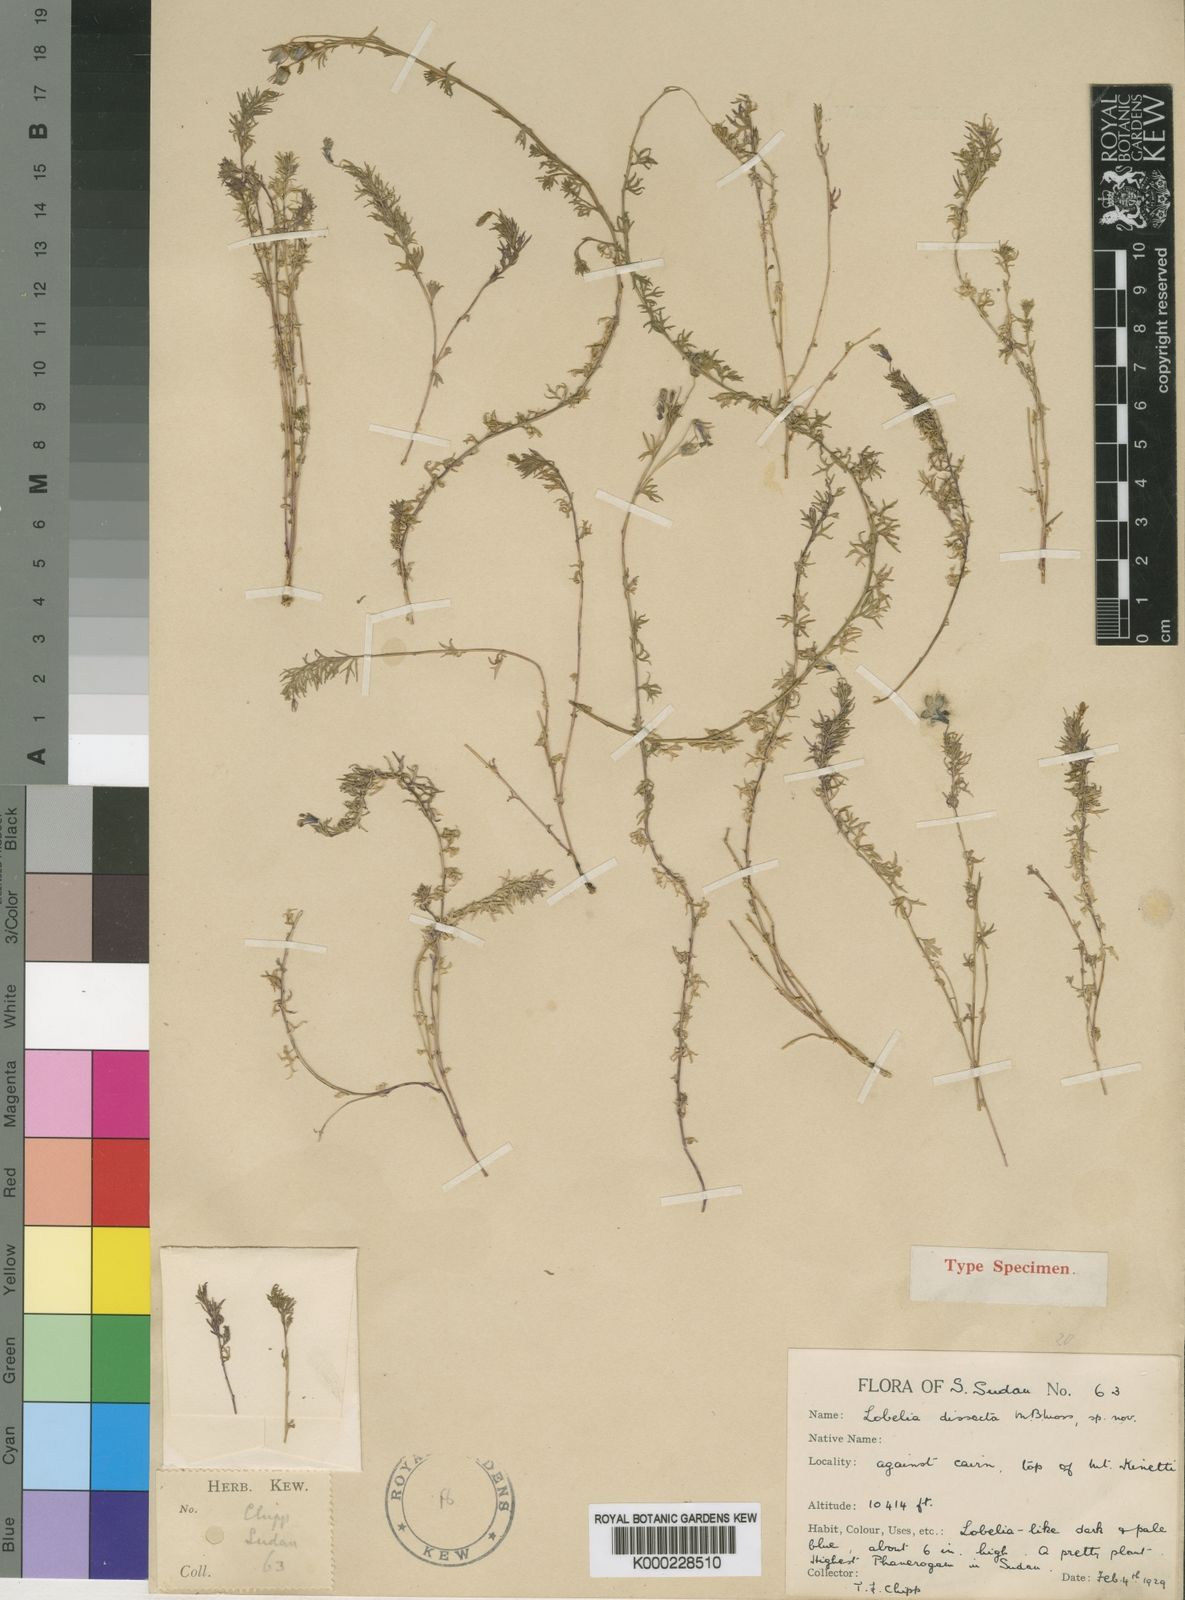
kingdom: Plantae
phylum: Tracheophyta
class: Magnoliopsida
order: Asterales
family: Campanulaceae
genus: Lobelia
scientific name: Lobelia dissecta
